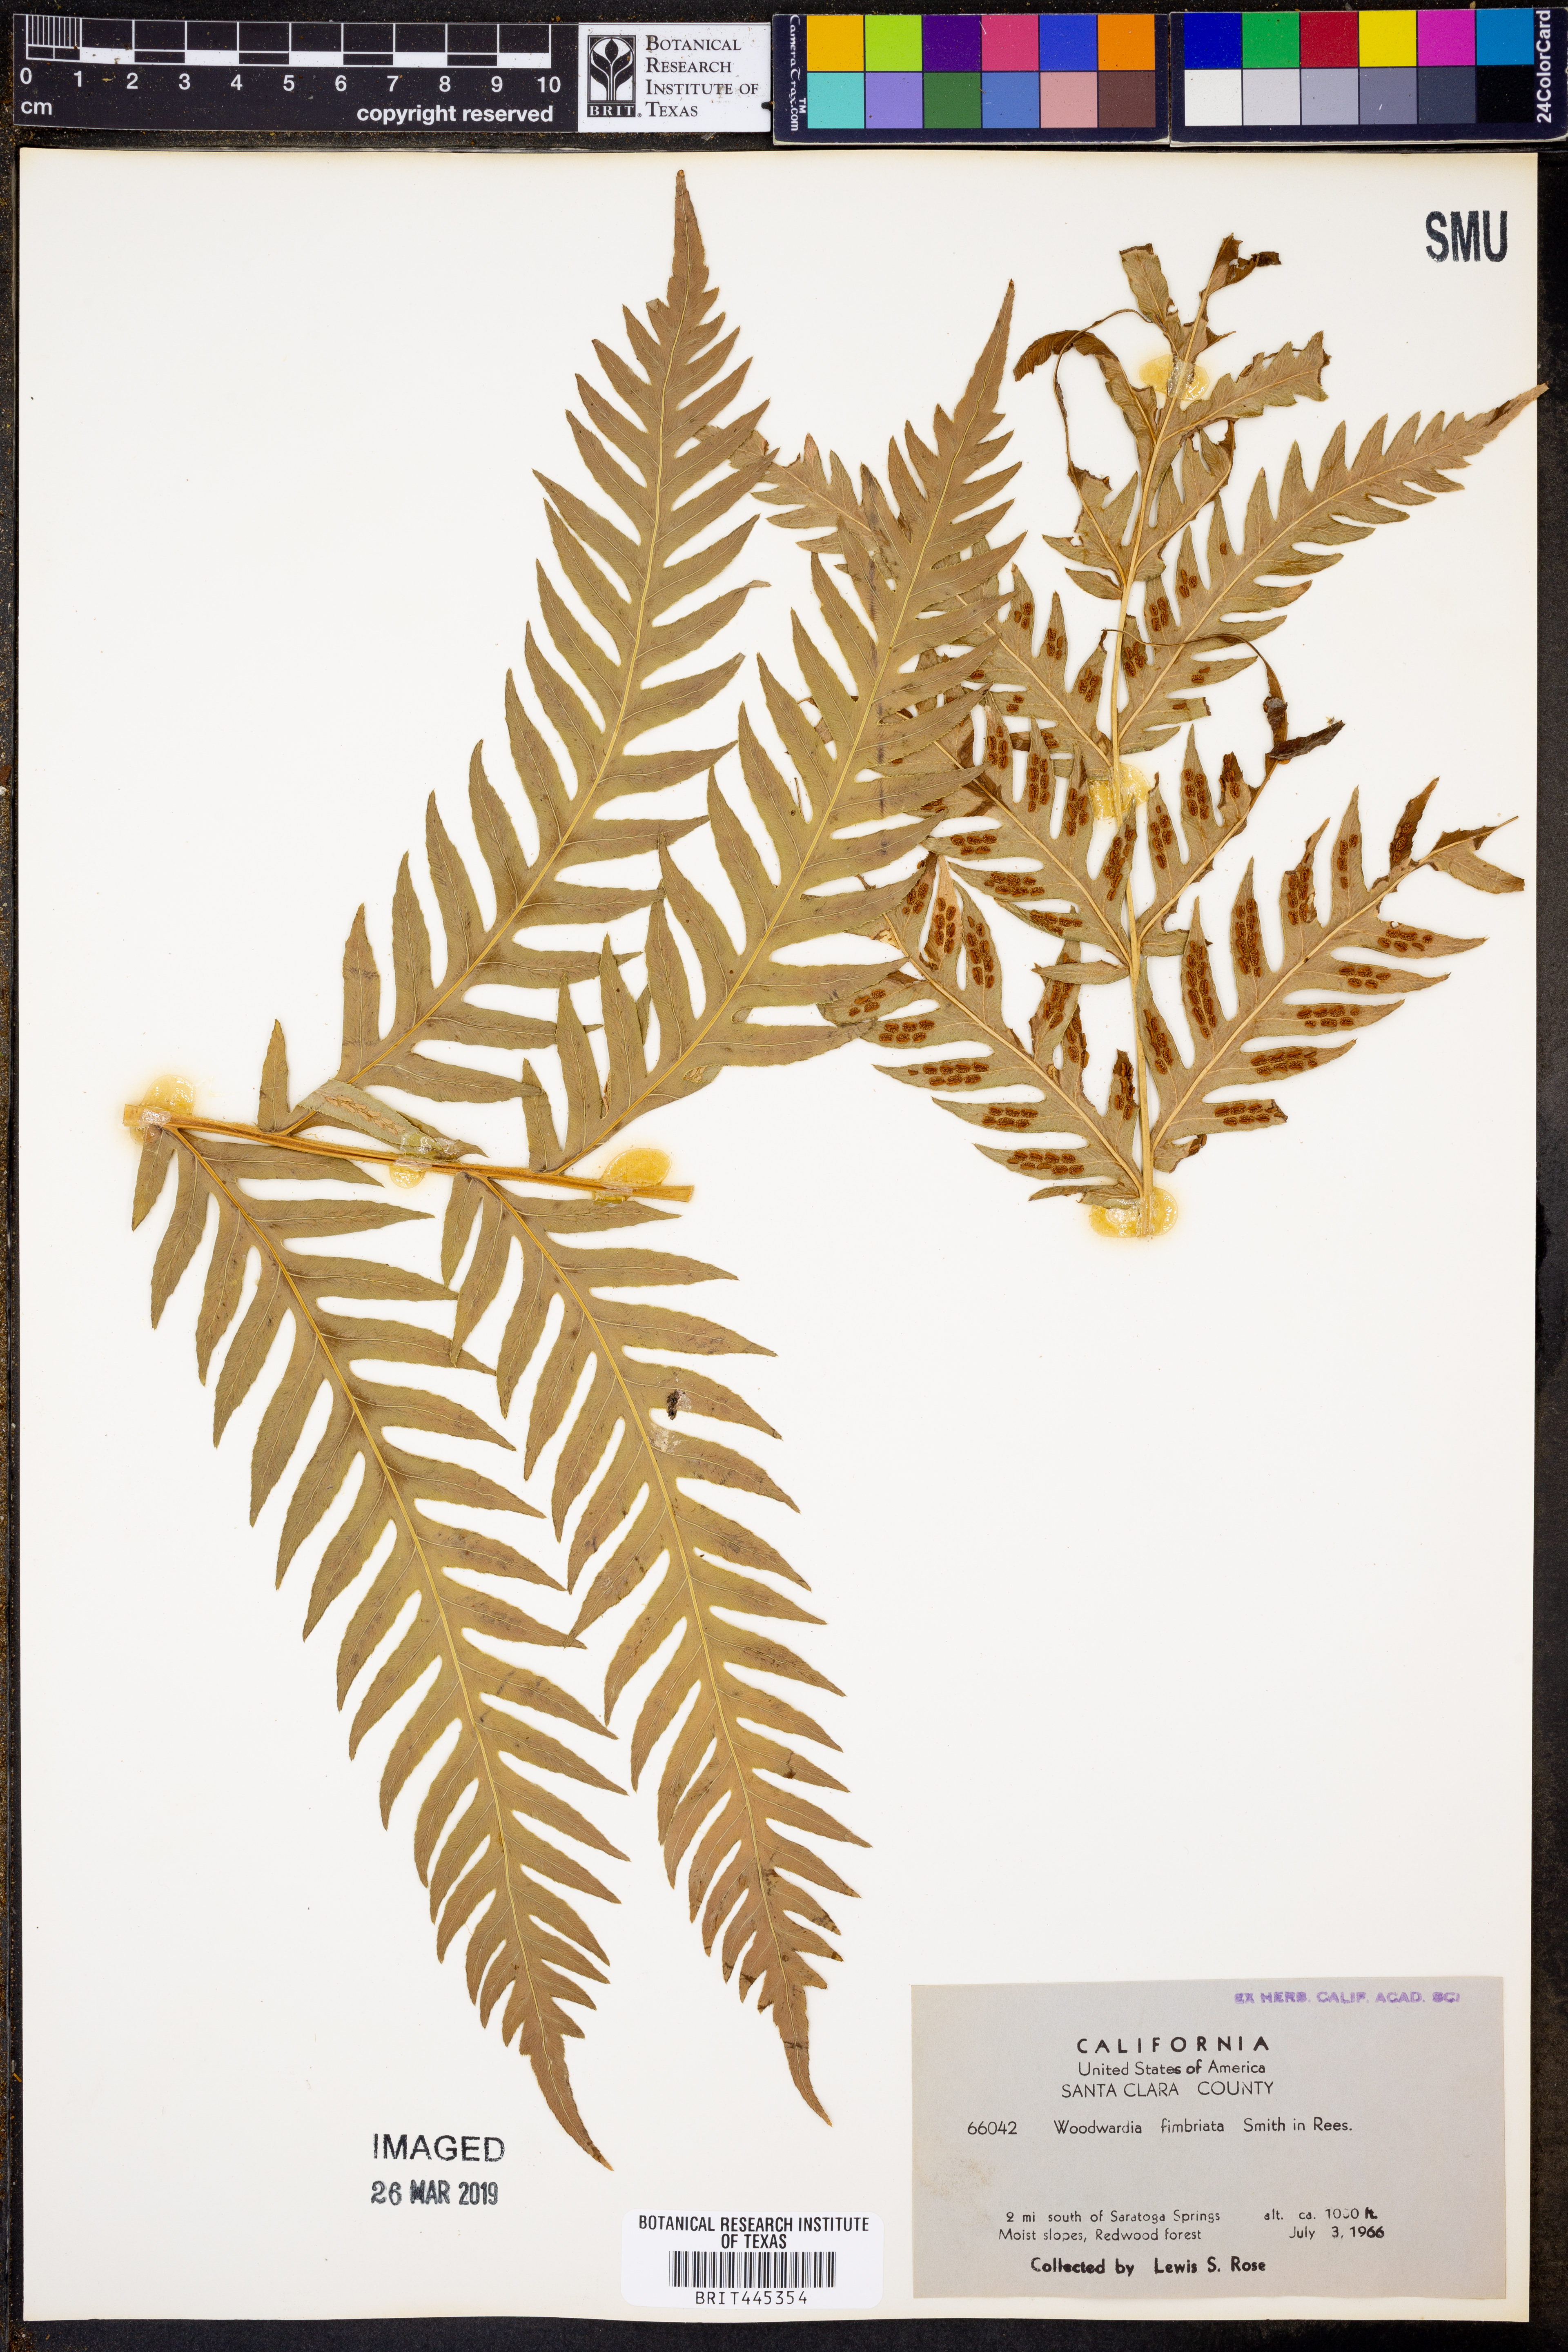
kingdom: Plantae
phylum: Tracheophyta
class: Polypodiopsida
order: Polypodiales
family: Blechnaceae
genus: Woodwardia
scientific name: Woodwardia fimbriata
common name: Giant chain fern
